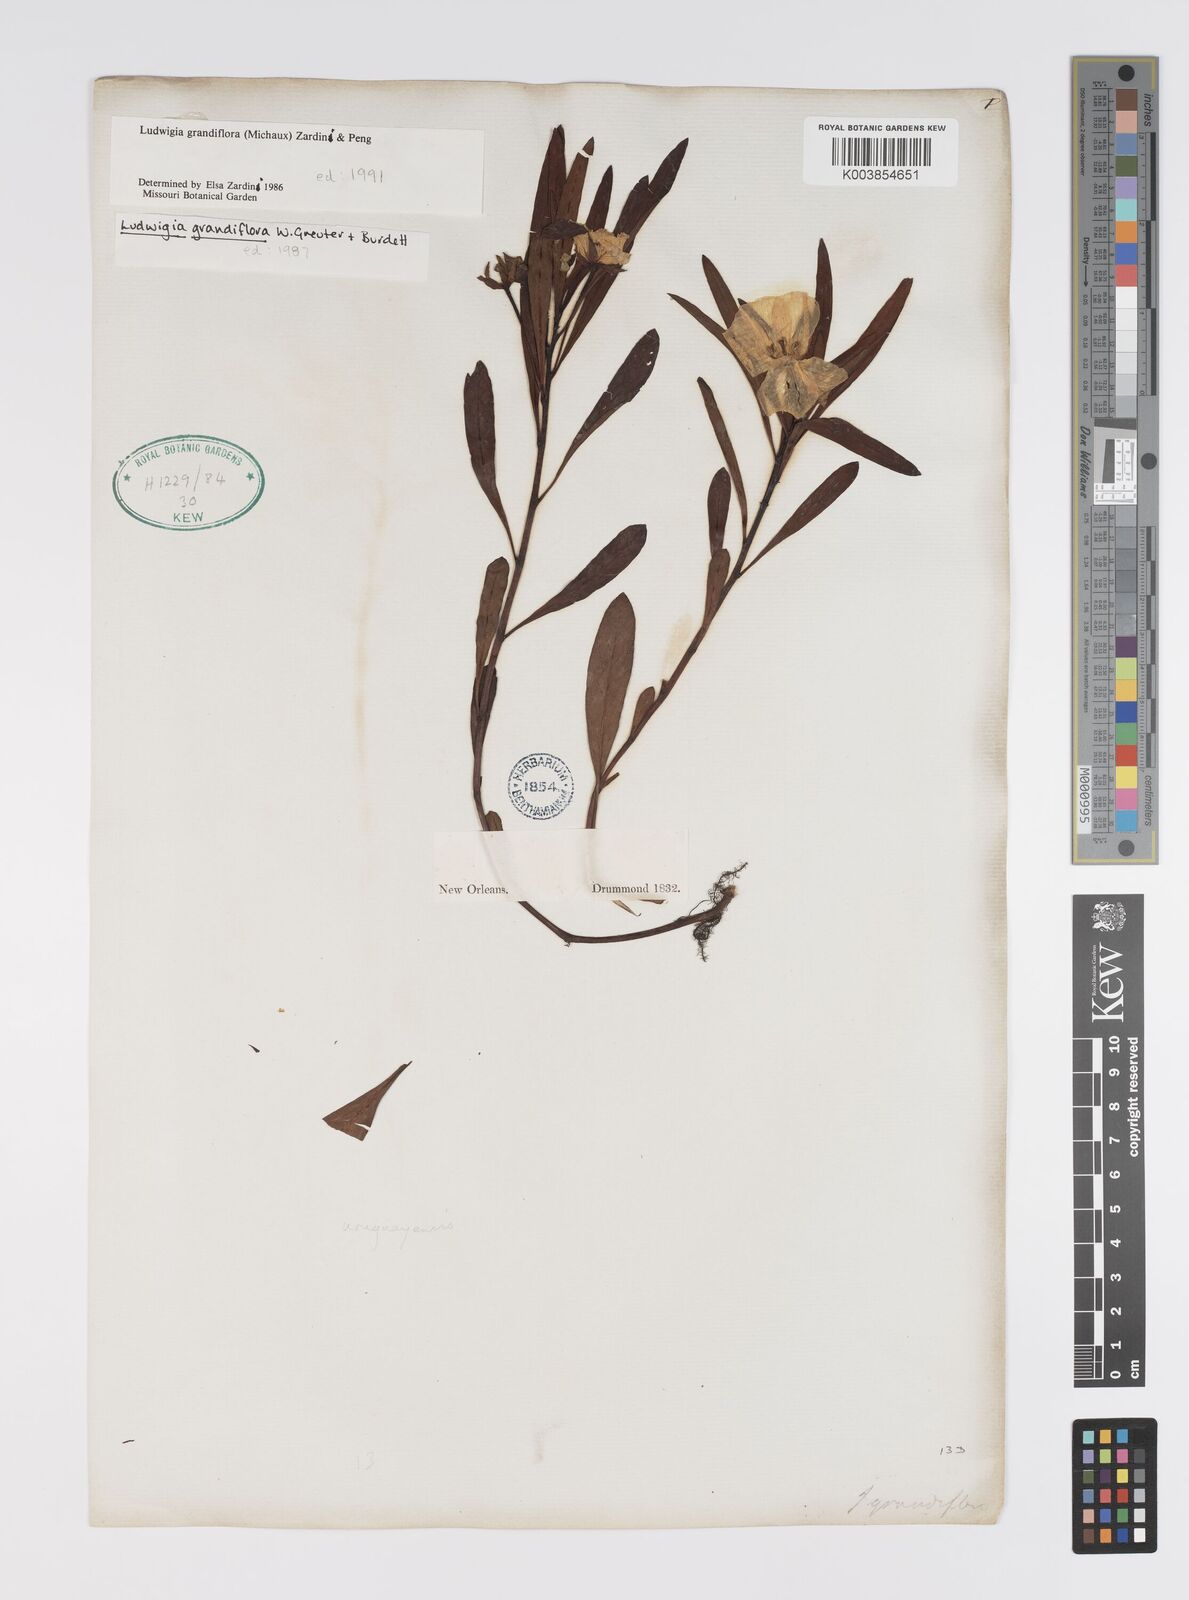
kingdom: Plantae
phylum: Tracheophyta
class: Magnoliopsida
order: Myrtales
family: Onagraceae
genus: Ludwigia
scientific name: Ludwigia grandiflora
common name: Water primrose
